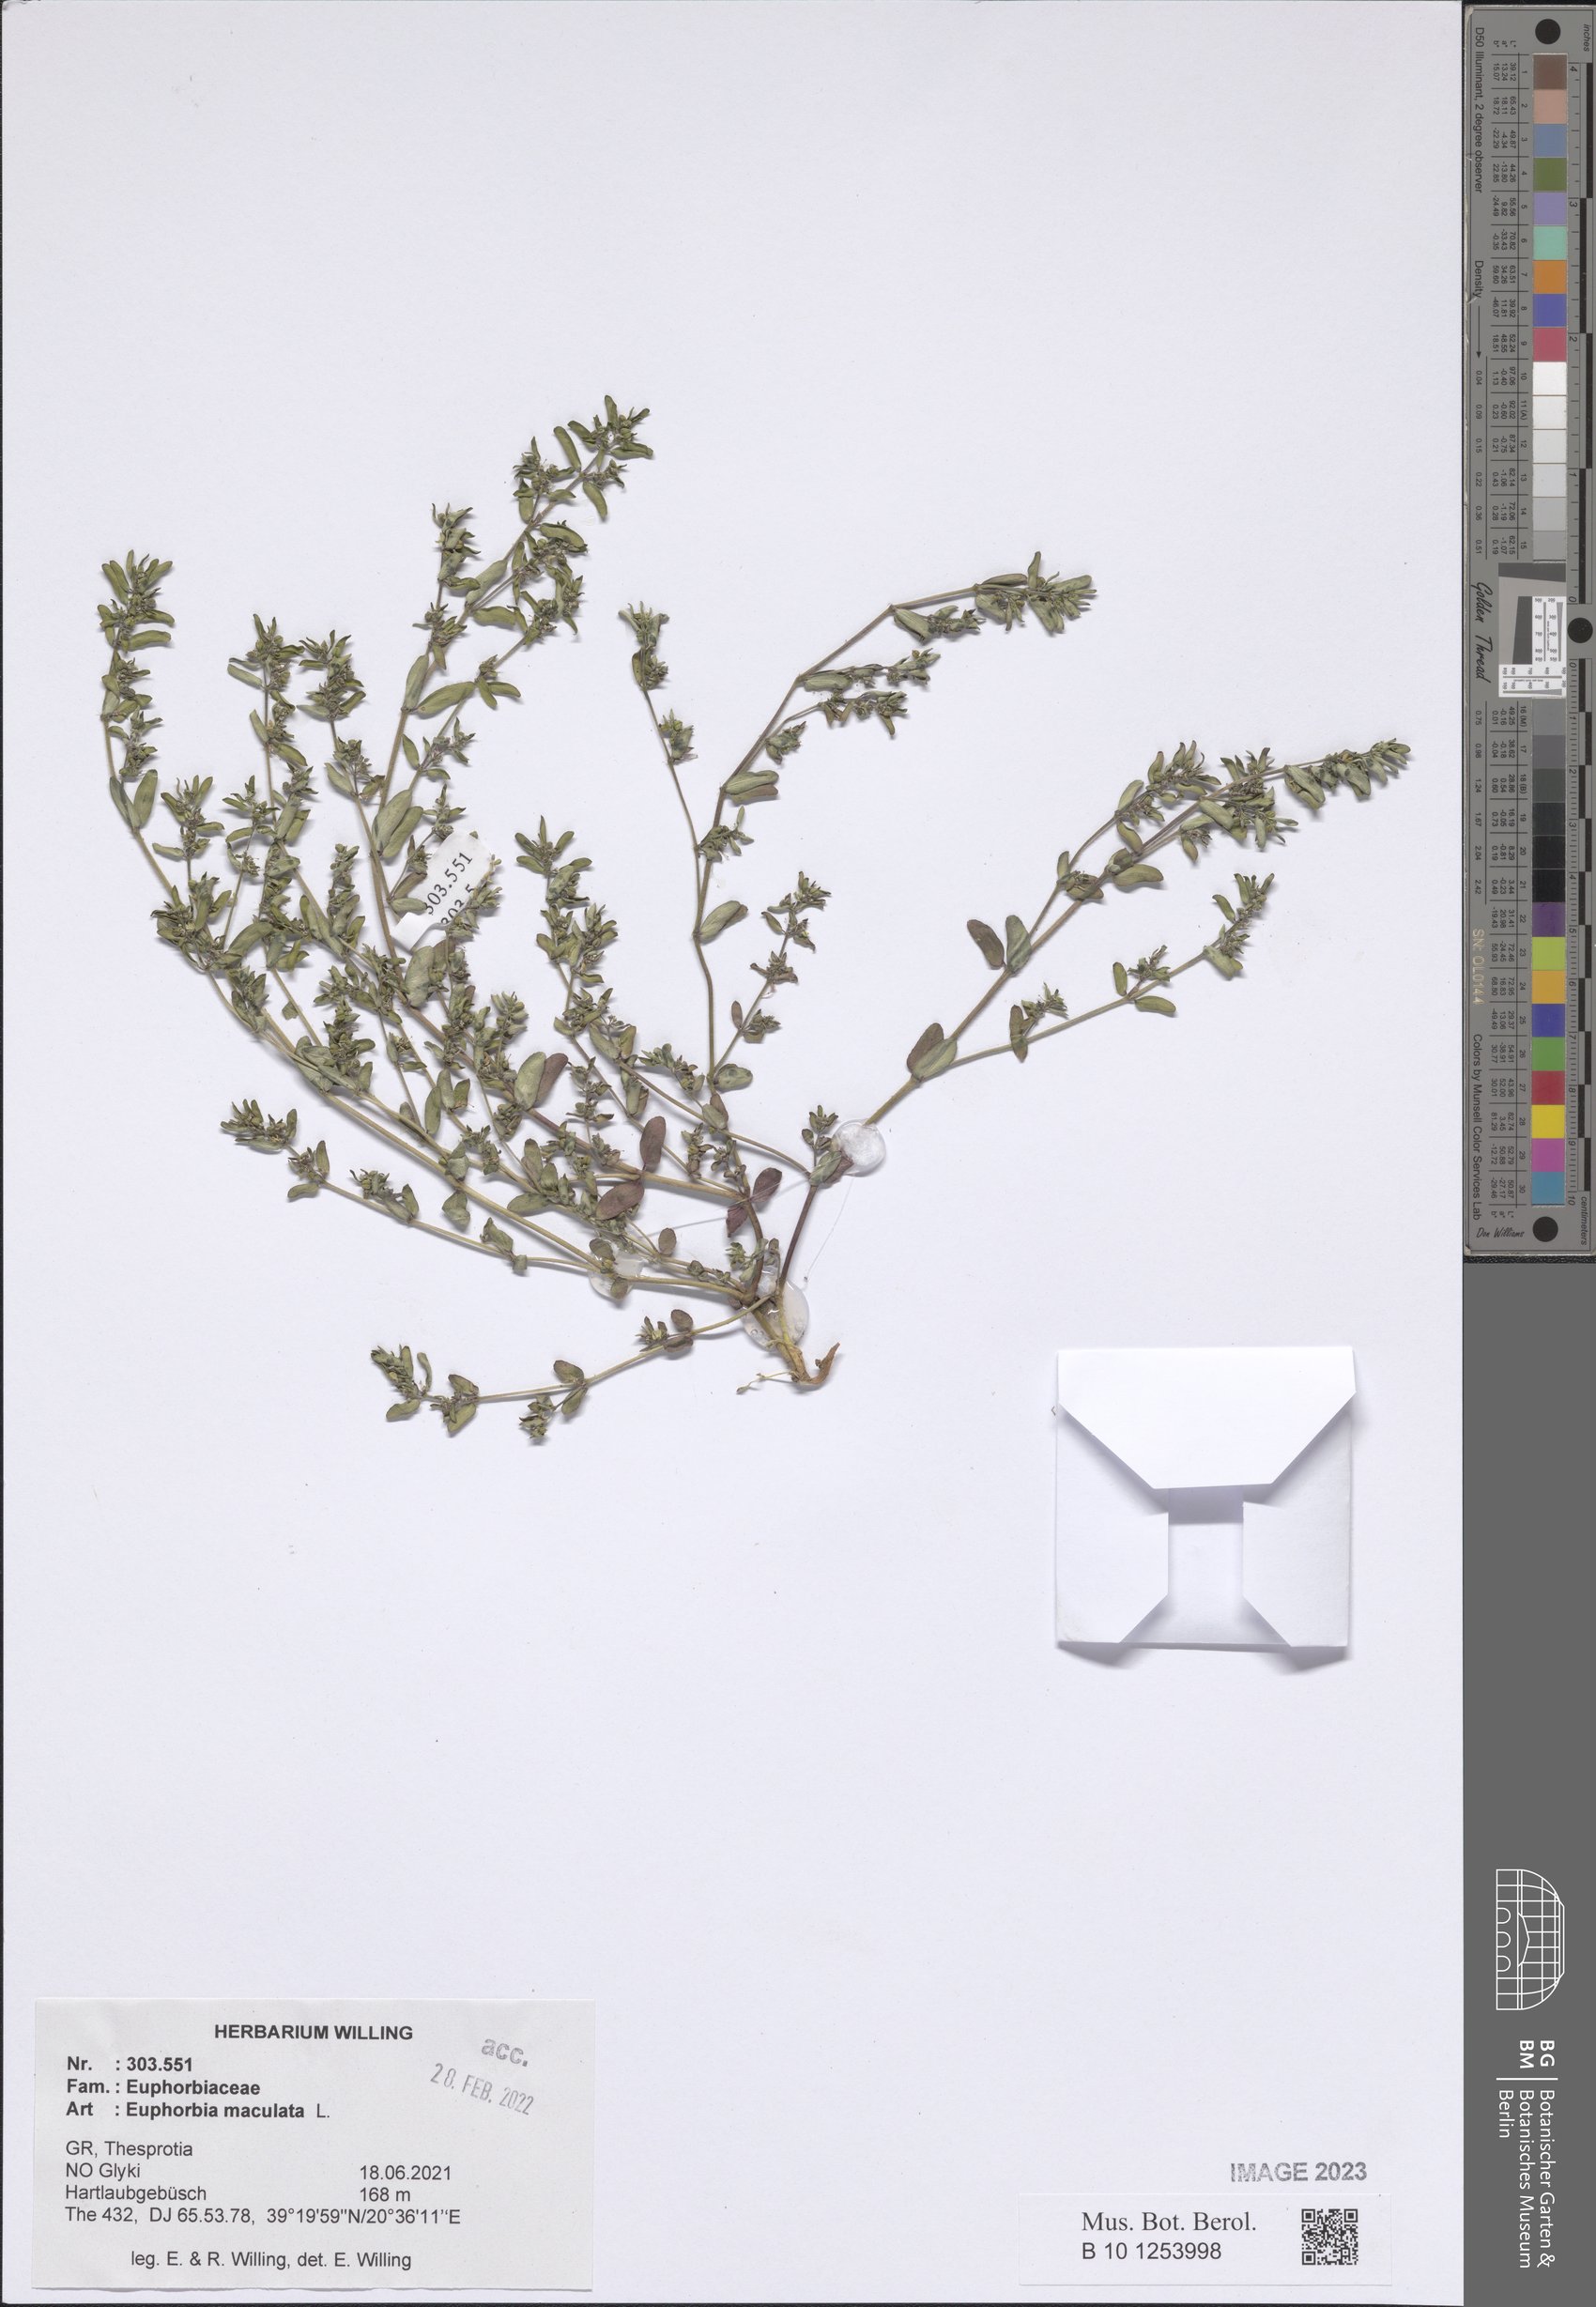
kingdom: Plantae
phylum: Tracheophyta
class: Magnoliopsida
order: Malpighiales
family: Euphorbiaceae
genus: Euphorbia
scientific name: Euphorbia maculata
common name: Spotted spurge
